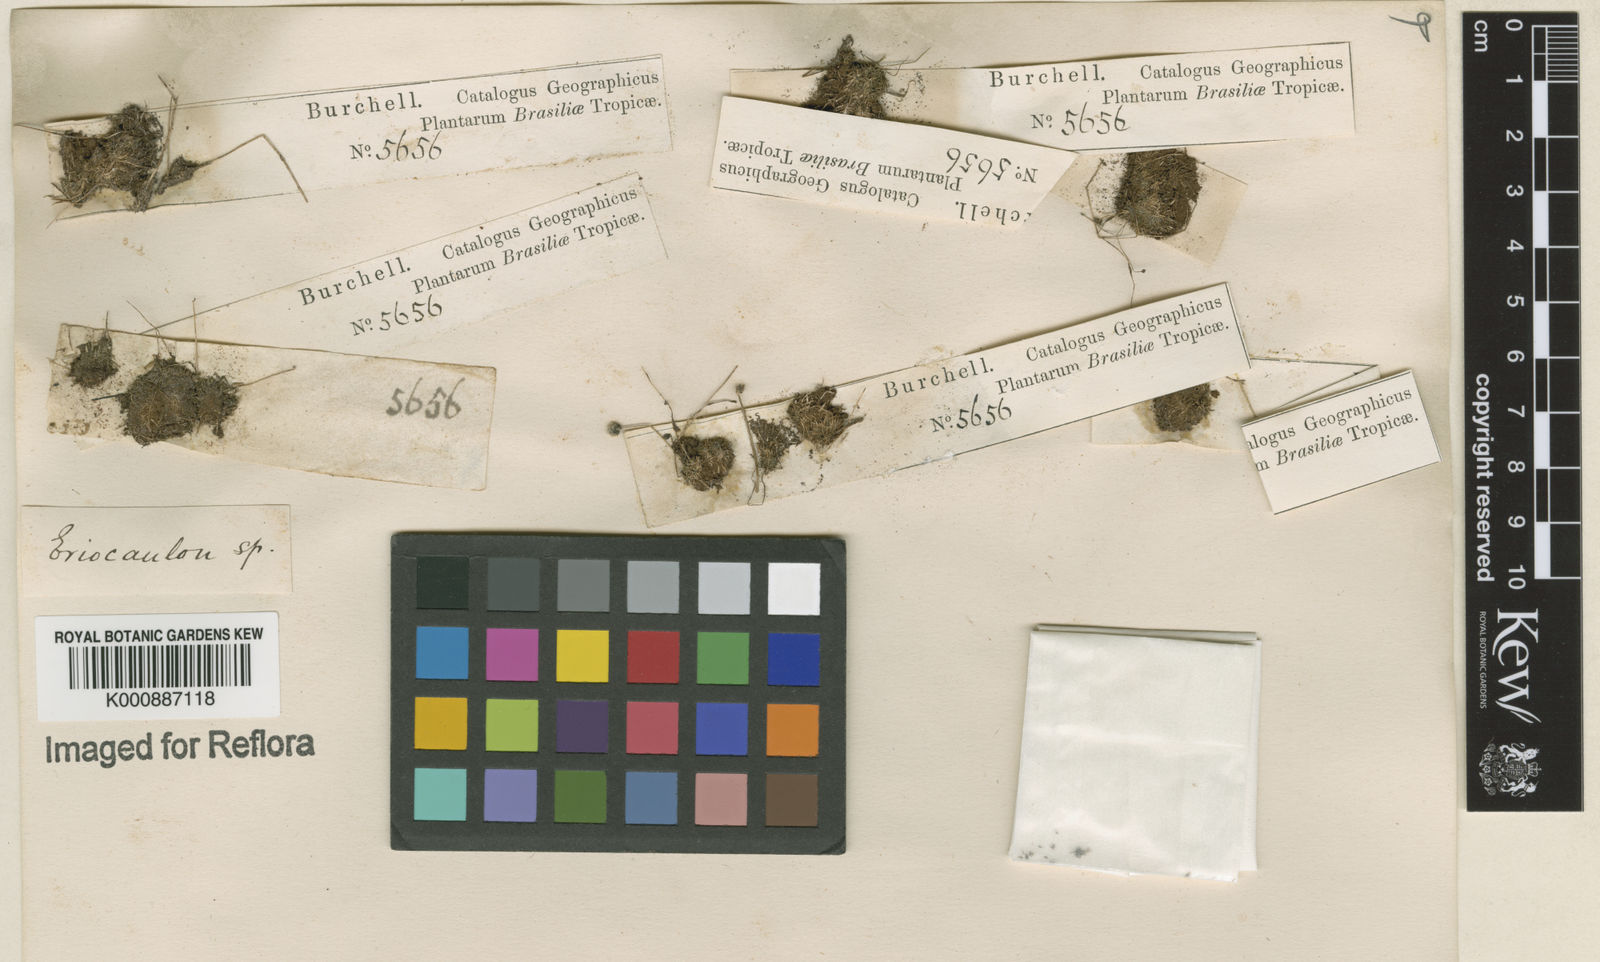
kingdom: Plantae
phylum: Tracheophyta
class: Liliopsida
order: Poales
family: Eriocaulaceae
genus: Eriocaulon
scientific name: Eriocaulon
